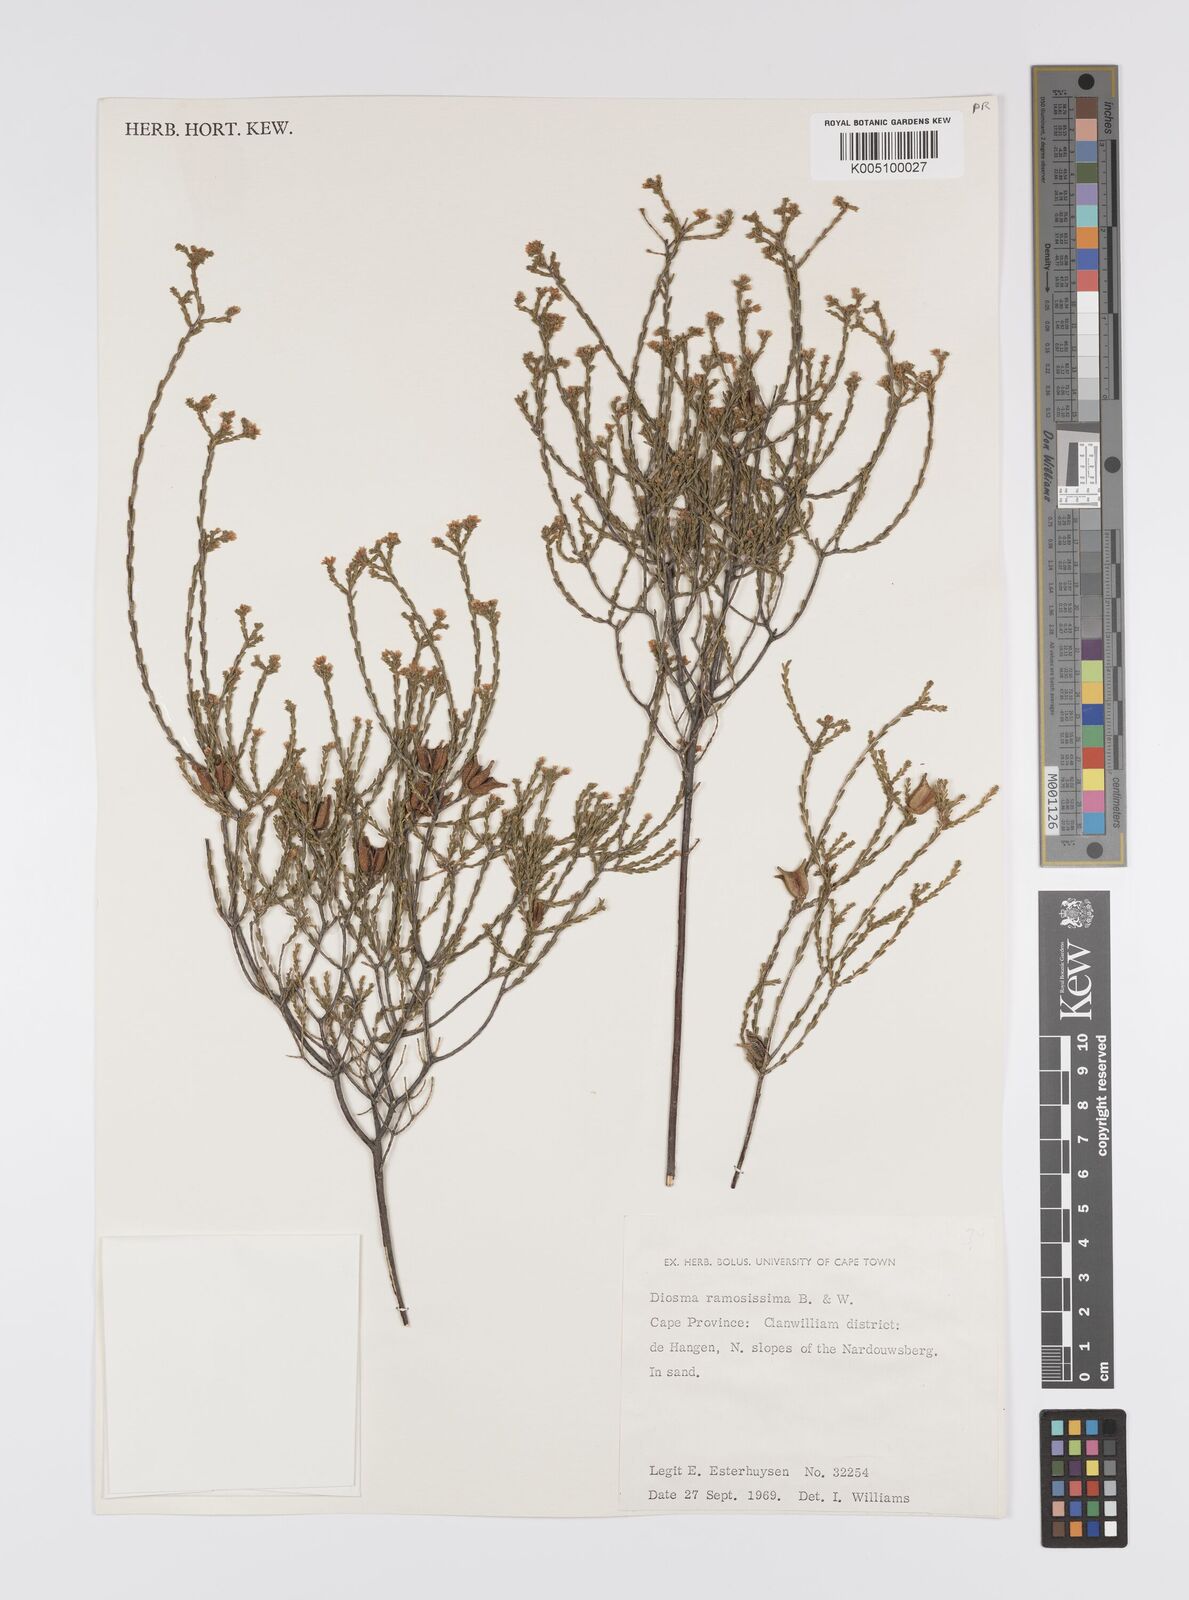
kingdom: Plantae
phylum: Tracheophyta
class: Magnoliopsida
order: Sapindales
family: Rutaceae
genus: Diosma
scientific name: Diosma ramosissima
